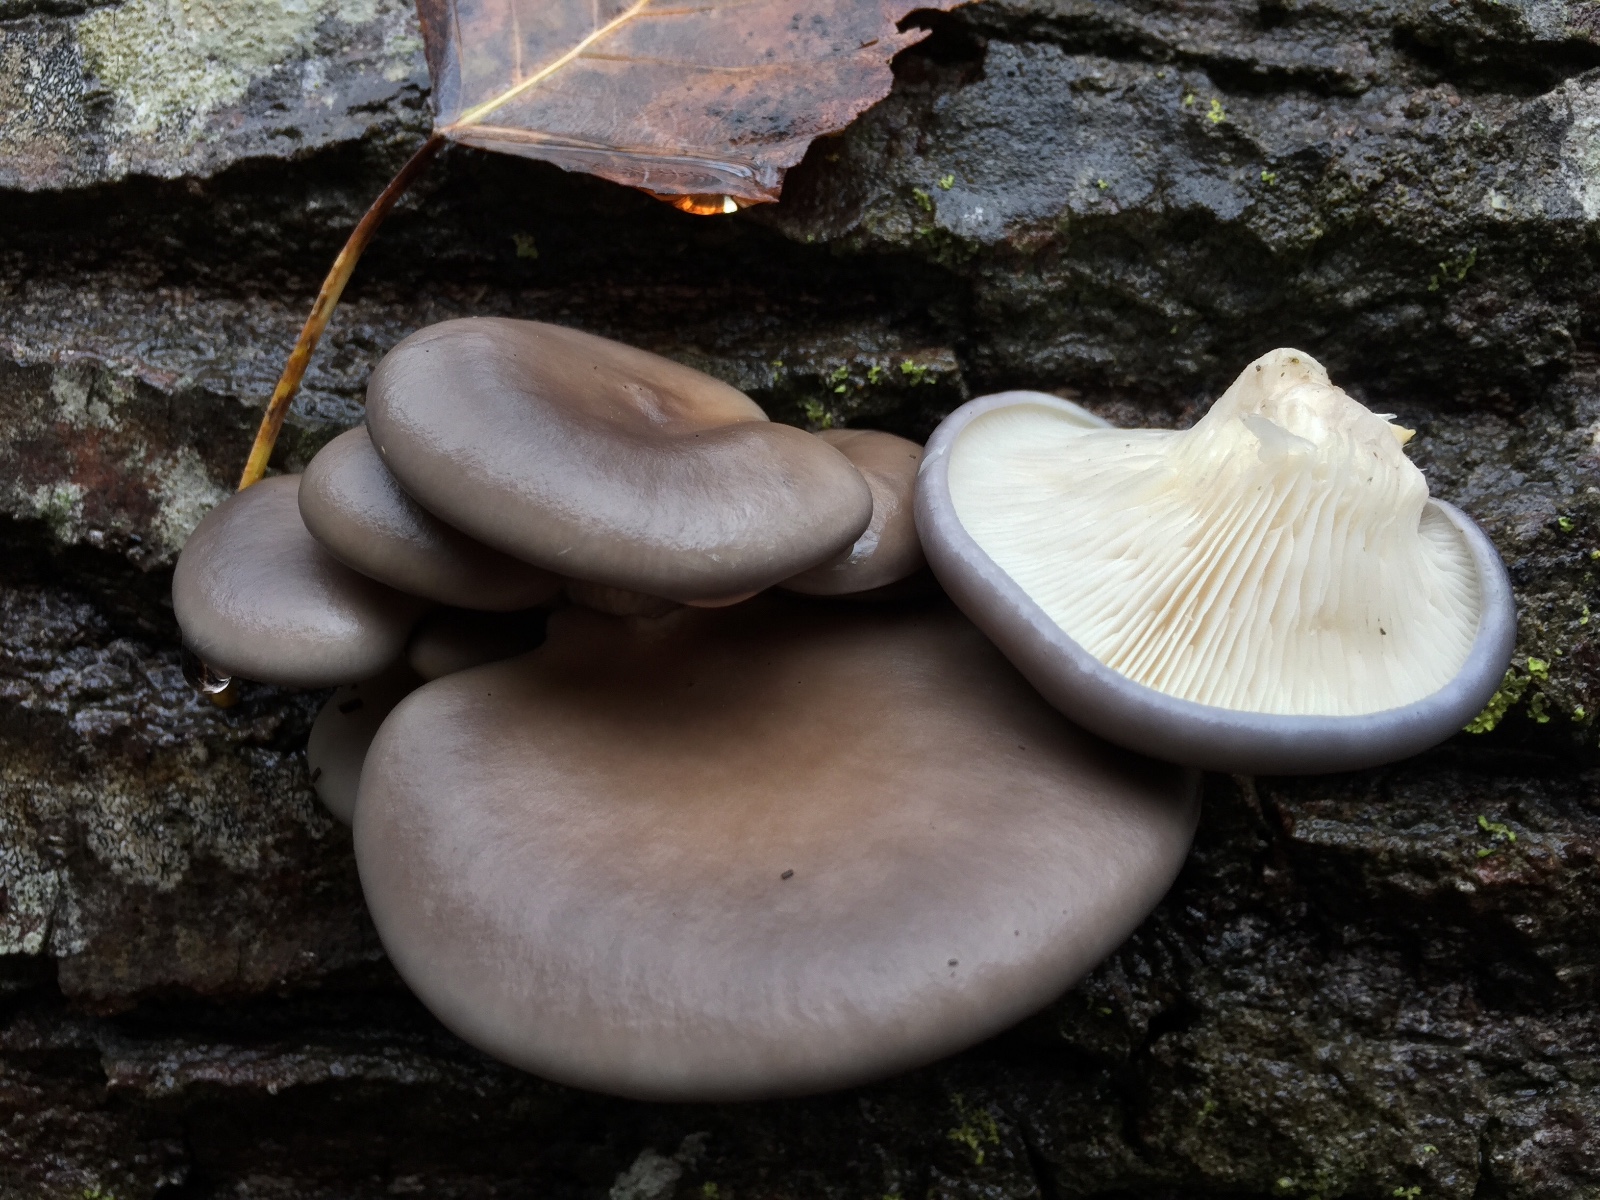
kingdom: Fungi
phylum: Basidiomycota
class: Agaricomycetes
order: Agaricales
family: Pleurotaceae
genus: Pleurotus
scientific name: Pleurotus ostreatus
